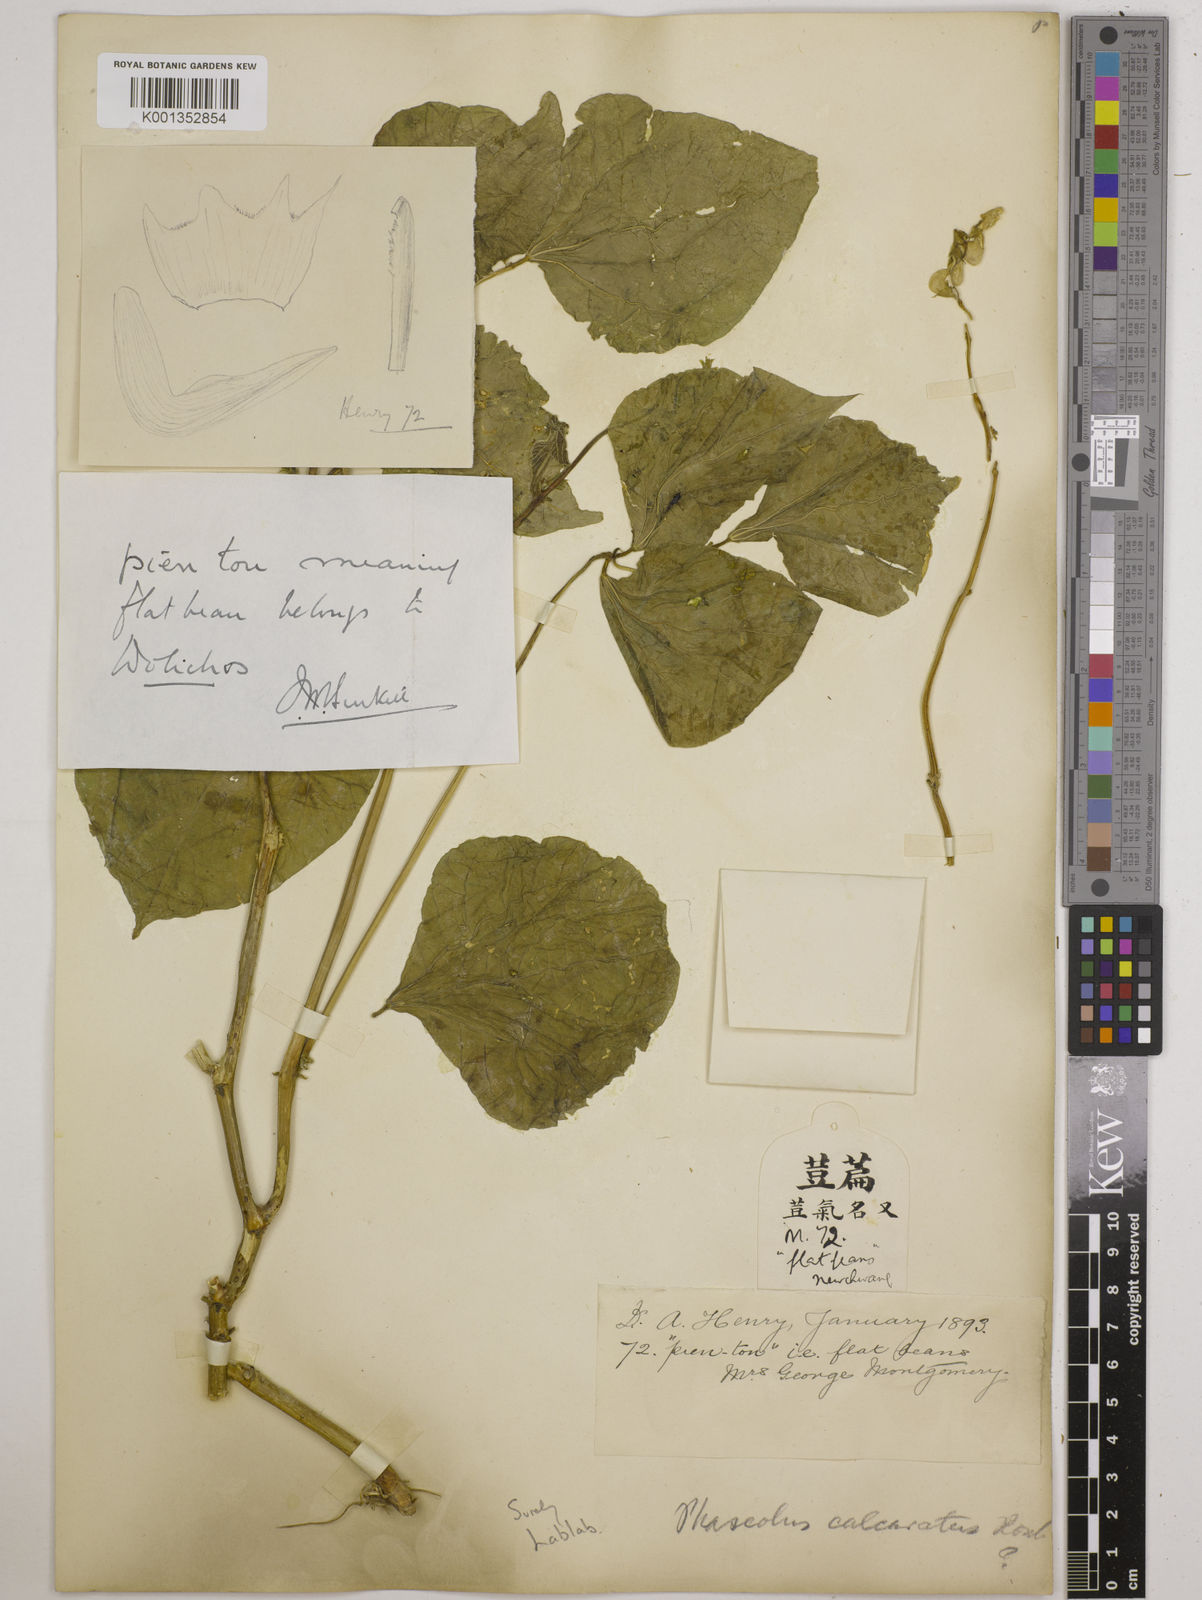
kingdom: Plantae
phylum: Tracheophyta
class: Magnoliopsida
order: Fabales
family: Fabaceae
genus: Lablab
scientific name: Lablab purpureus
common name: Lablab-bean
